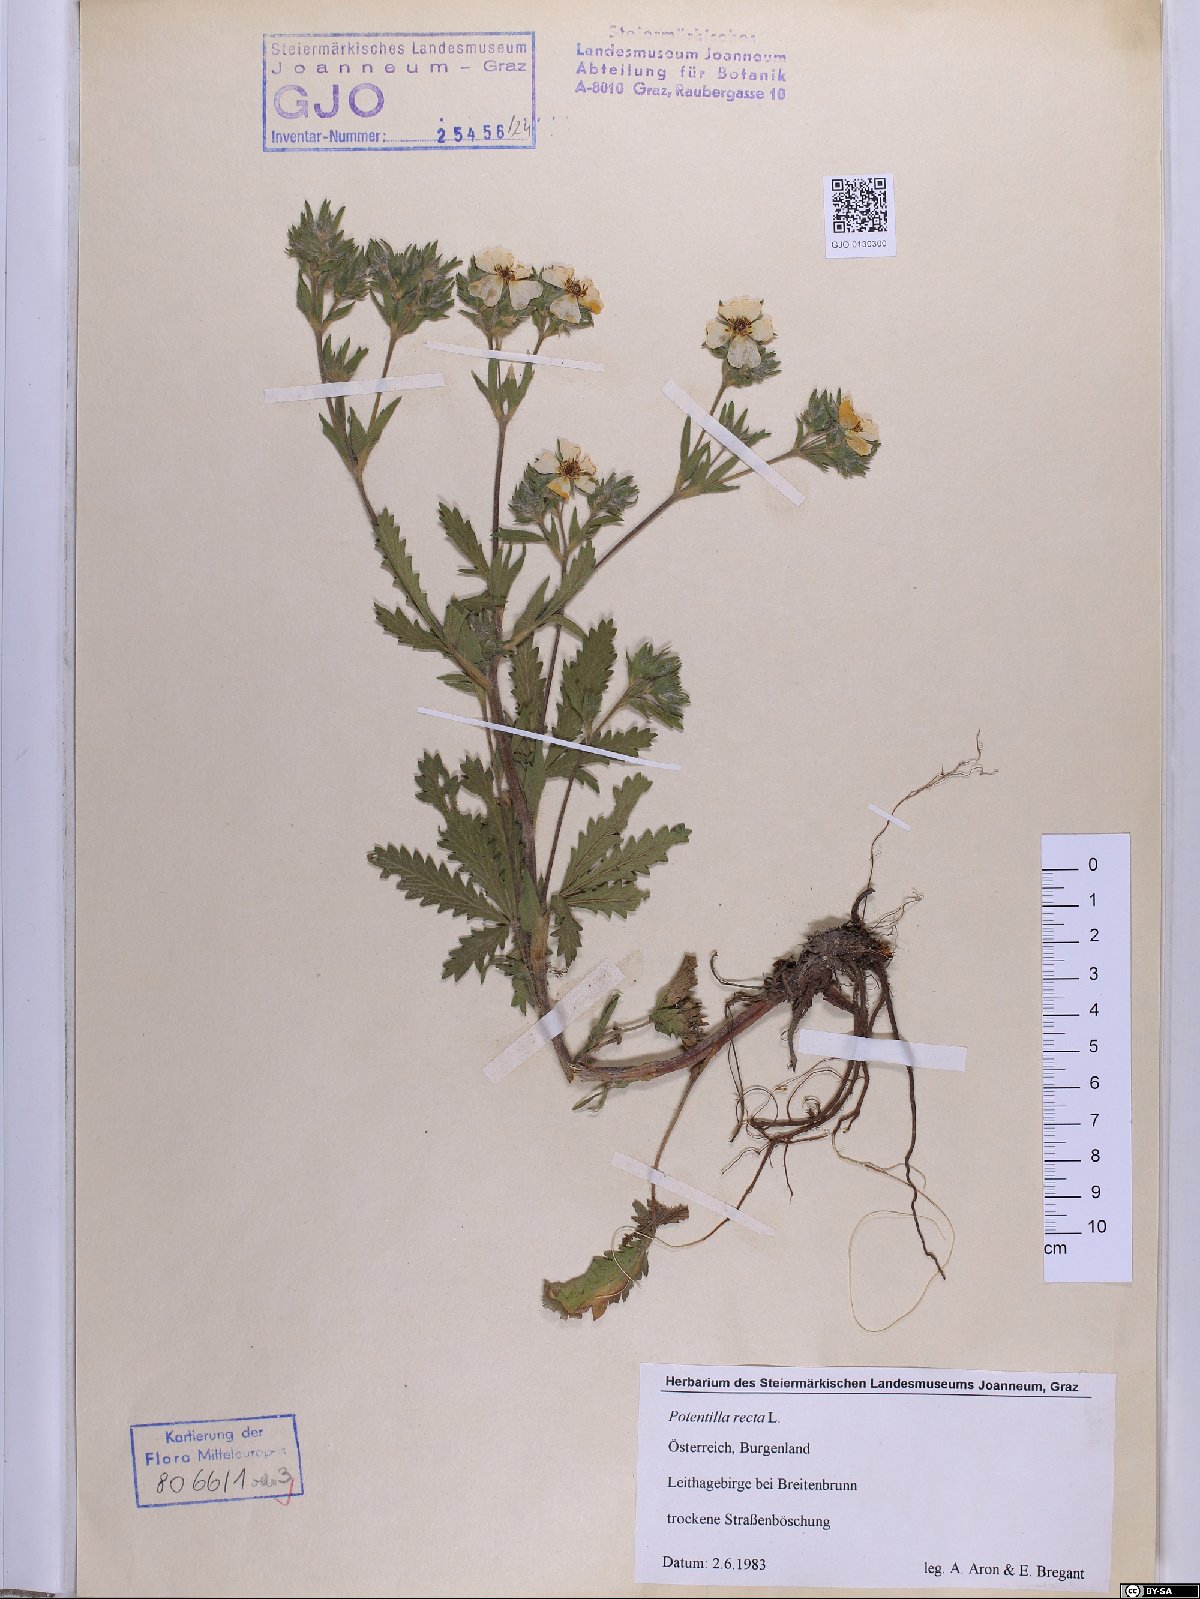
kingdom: Plantae
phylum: Tracheophyta
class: Magnoliopsida
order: Rosales
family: Rosaceae
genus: Potentilla
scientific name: Potentilla recta
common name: Sulphur cinquefoil
